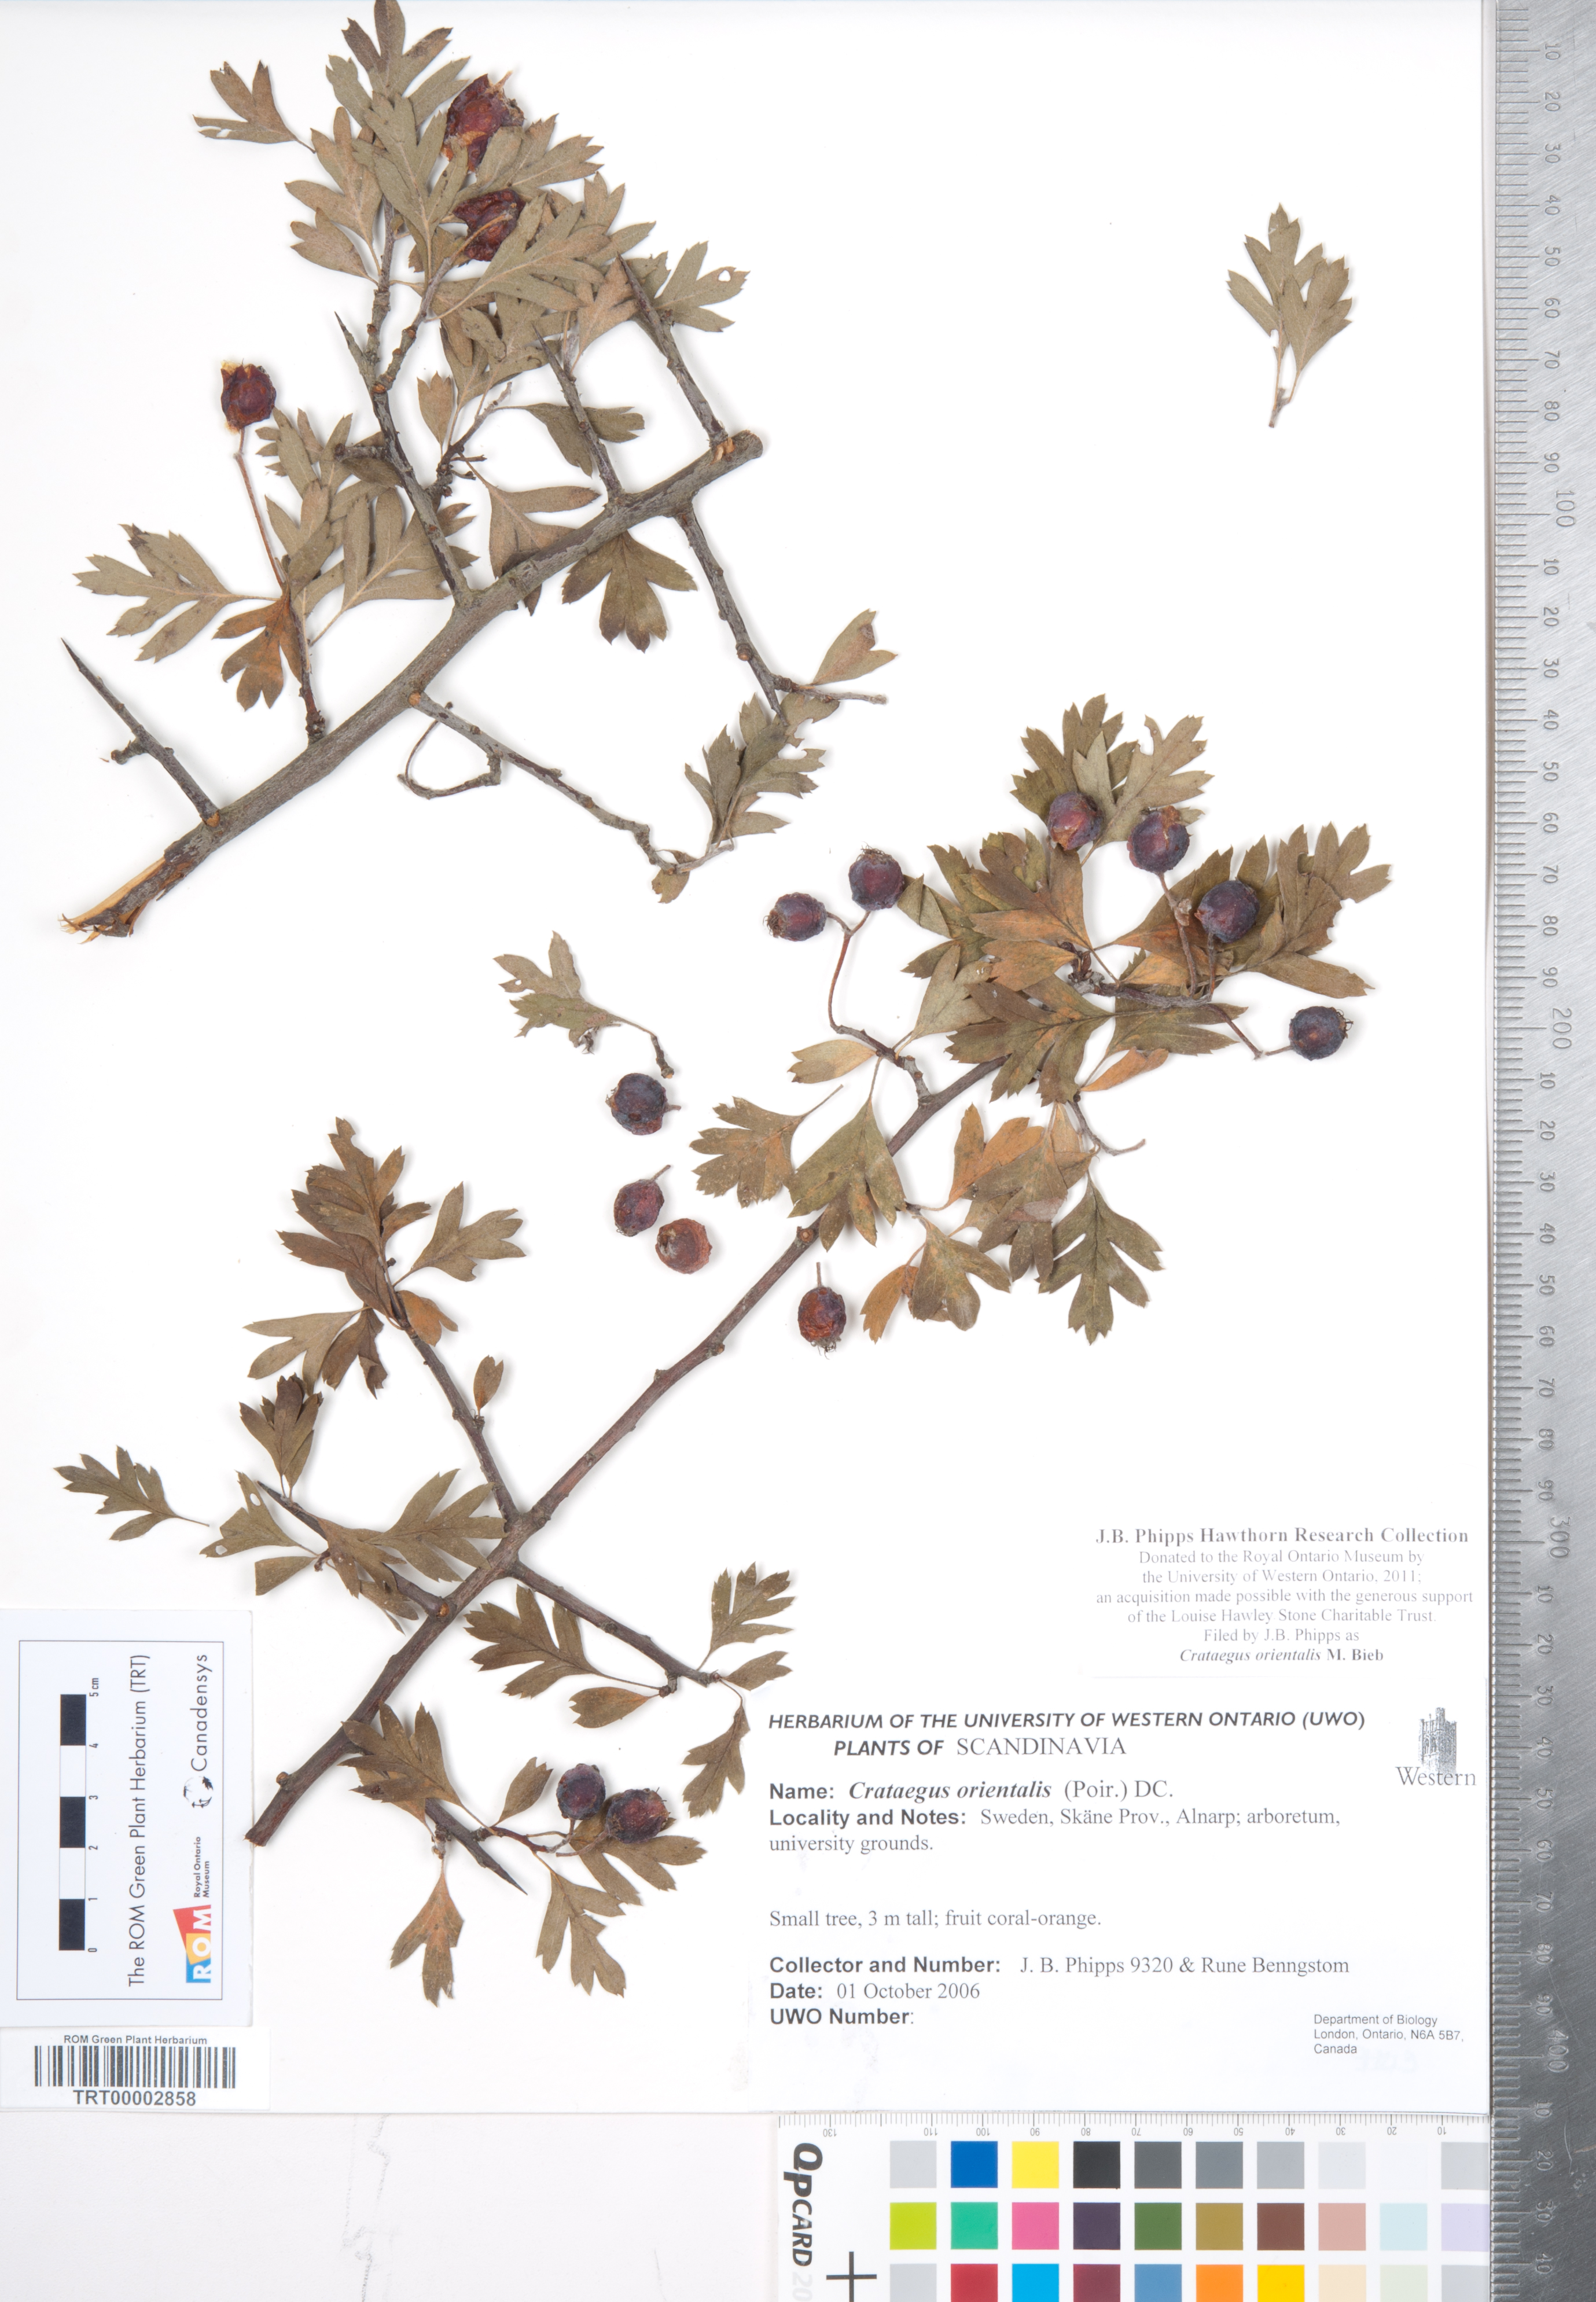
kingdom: Plantae
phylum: Tracheophyta
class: Magnoliopsida
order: Rosales
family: Rosaceae
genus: Crataegus
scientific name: Crataegus orientalis
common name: Oriental hawthorn
